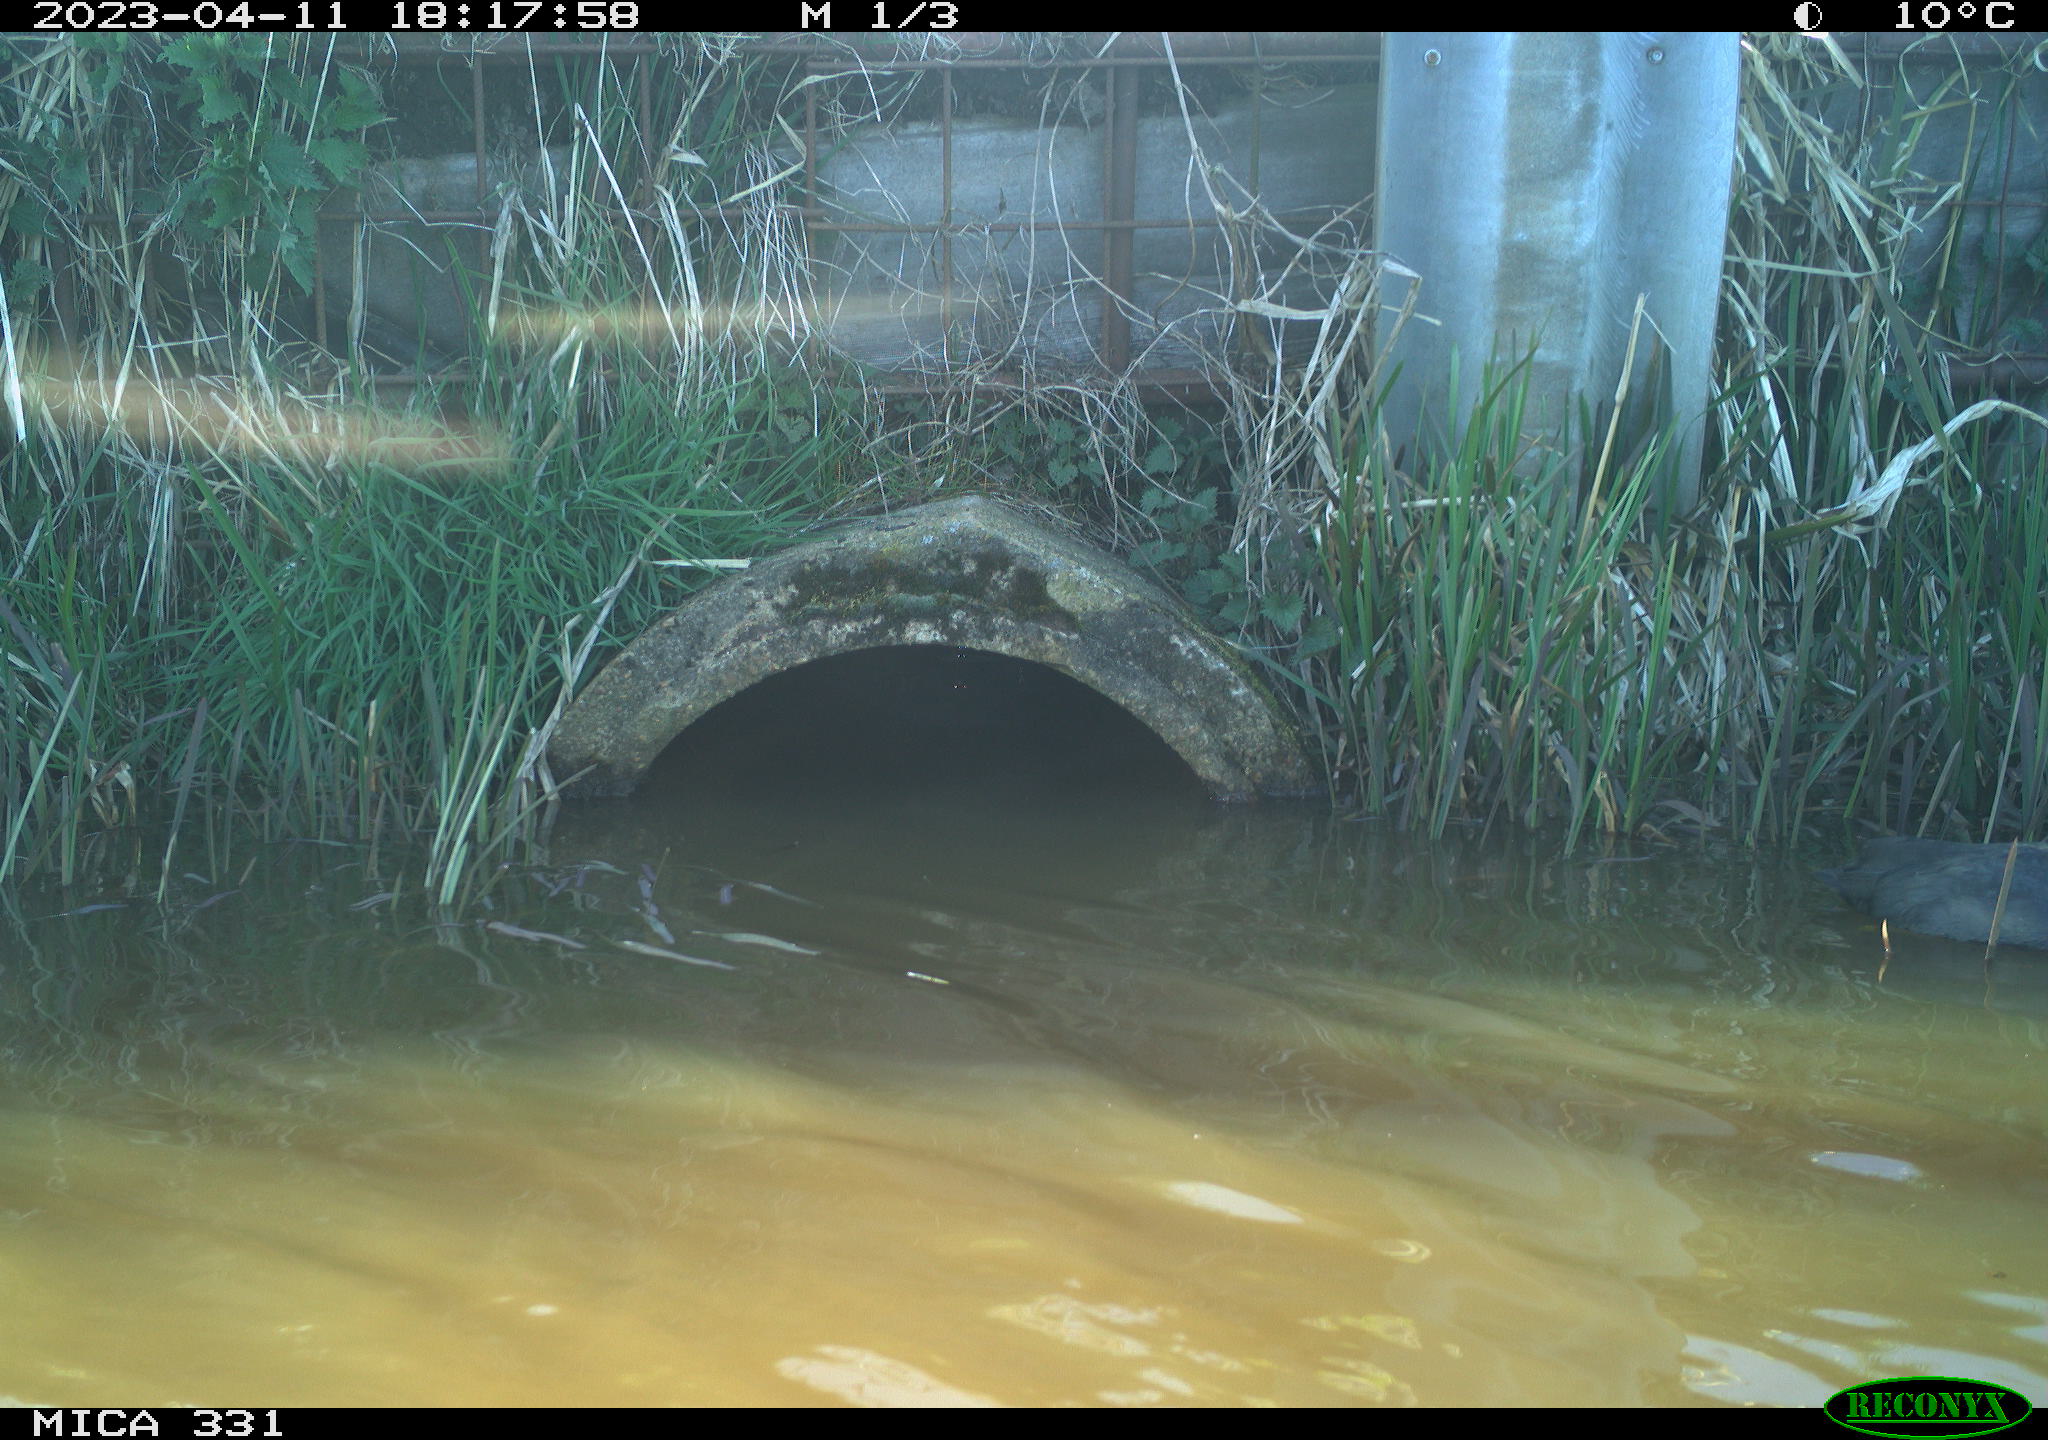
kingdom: Animalia
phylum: Chordata
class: Aves
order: Gruiformes
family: Rallidae
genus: Fulica
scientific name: Fulica atra
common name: Eurasian coot
